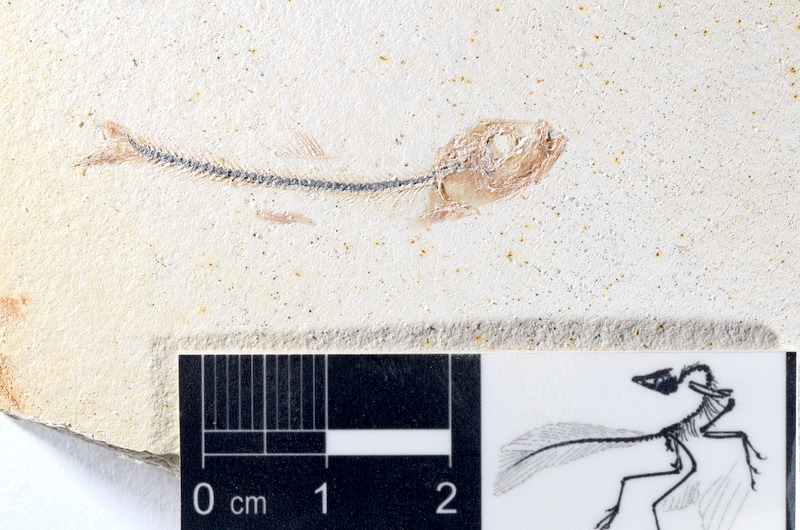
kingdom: Animalia
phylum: Chordata
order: Salmoniformes
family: Orthogonikleithridae
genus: Orthogonikleithrus
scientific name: Orthogonikleithrus hoelli
